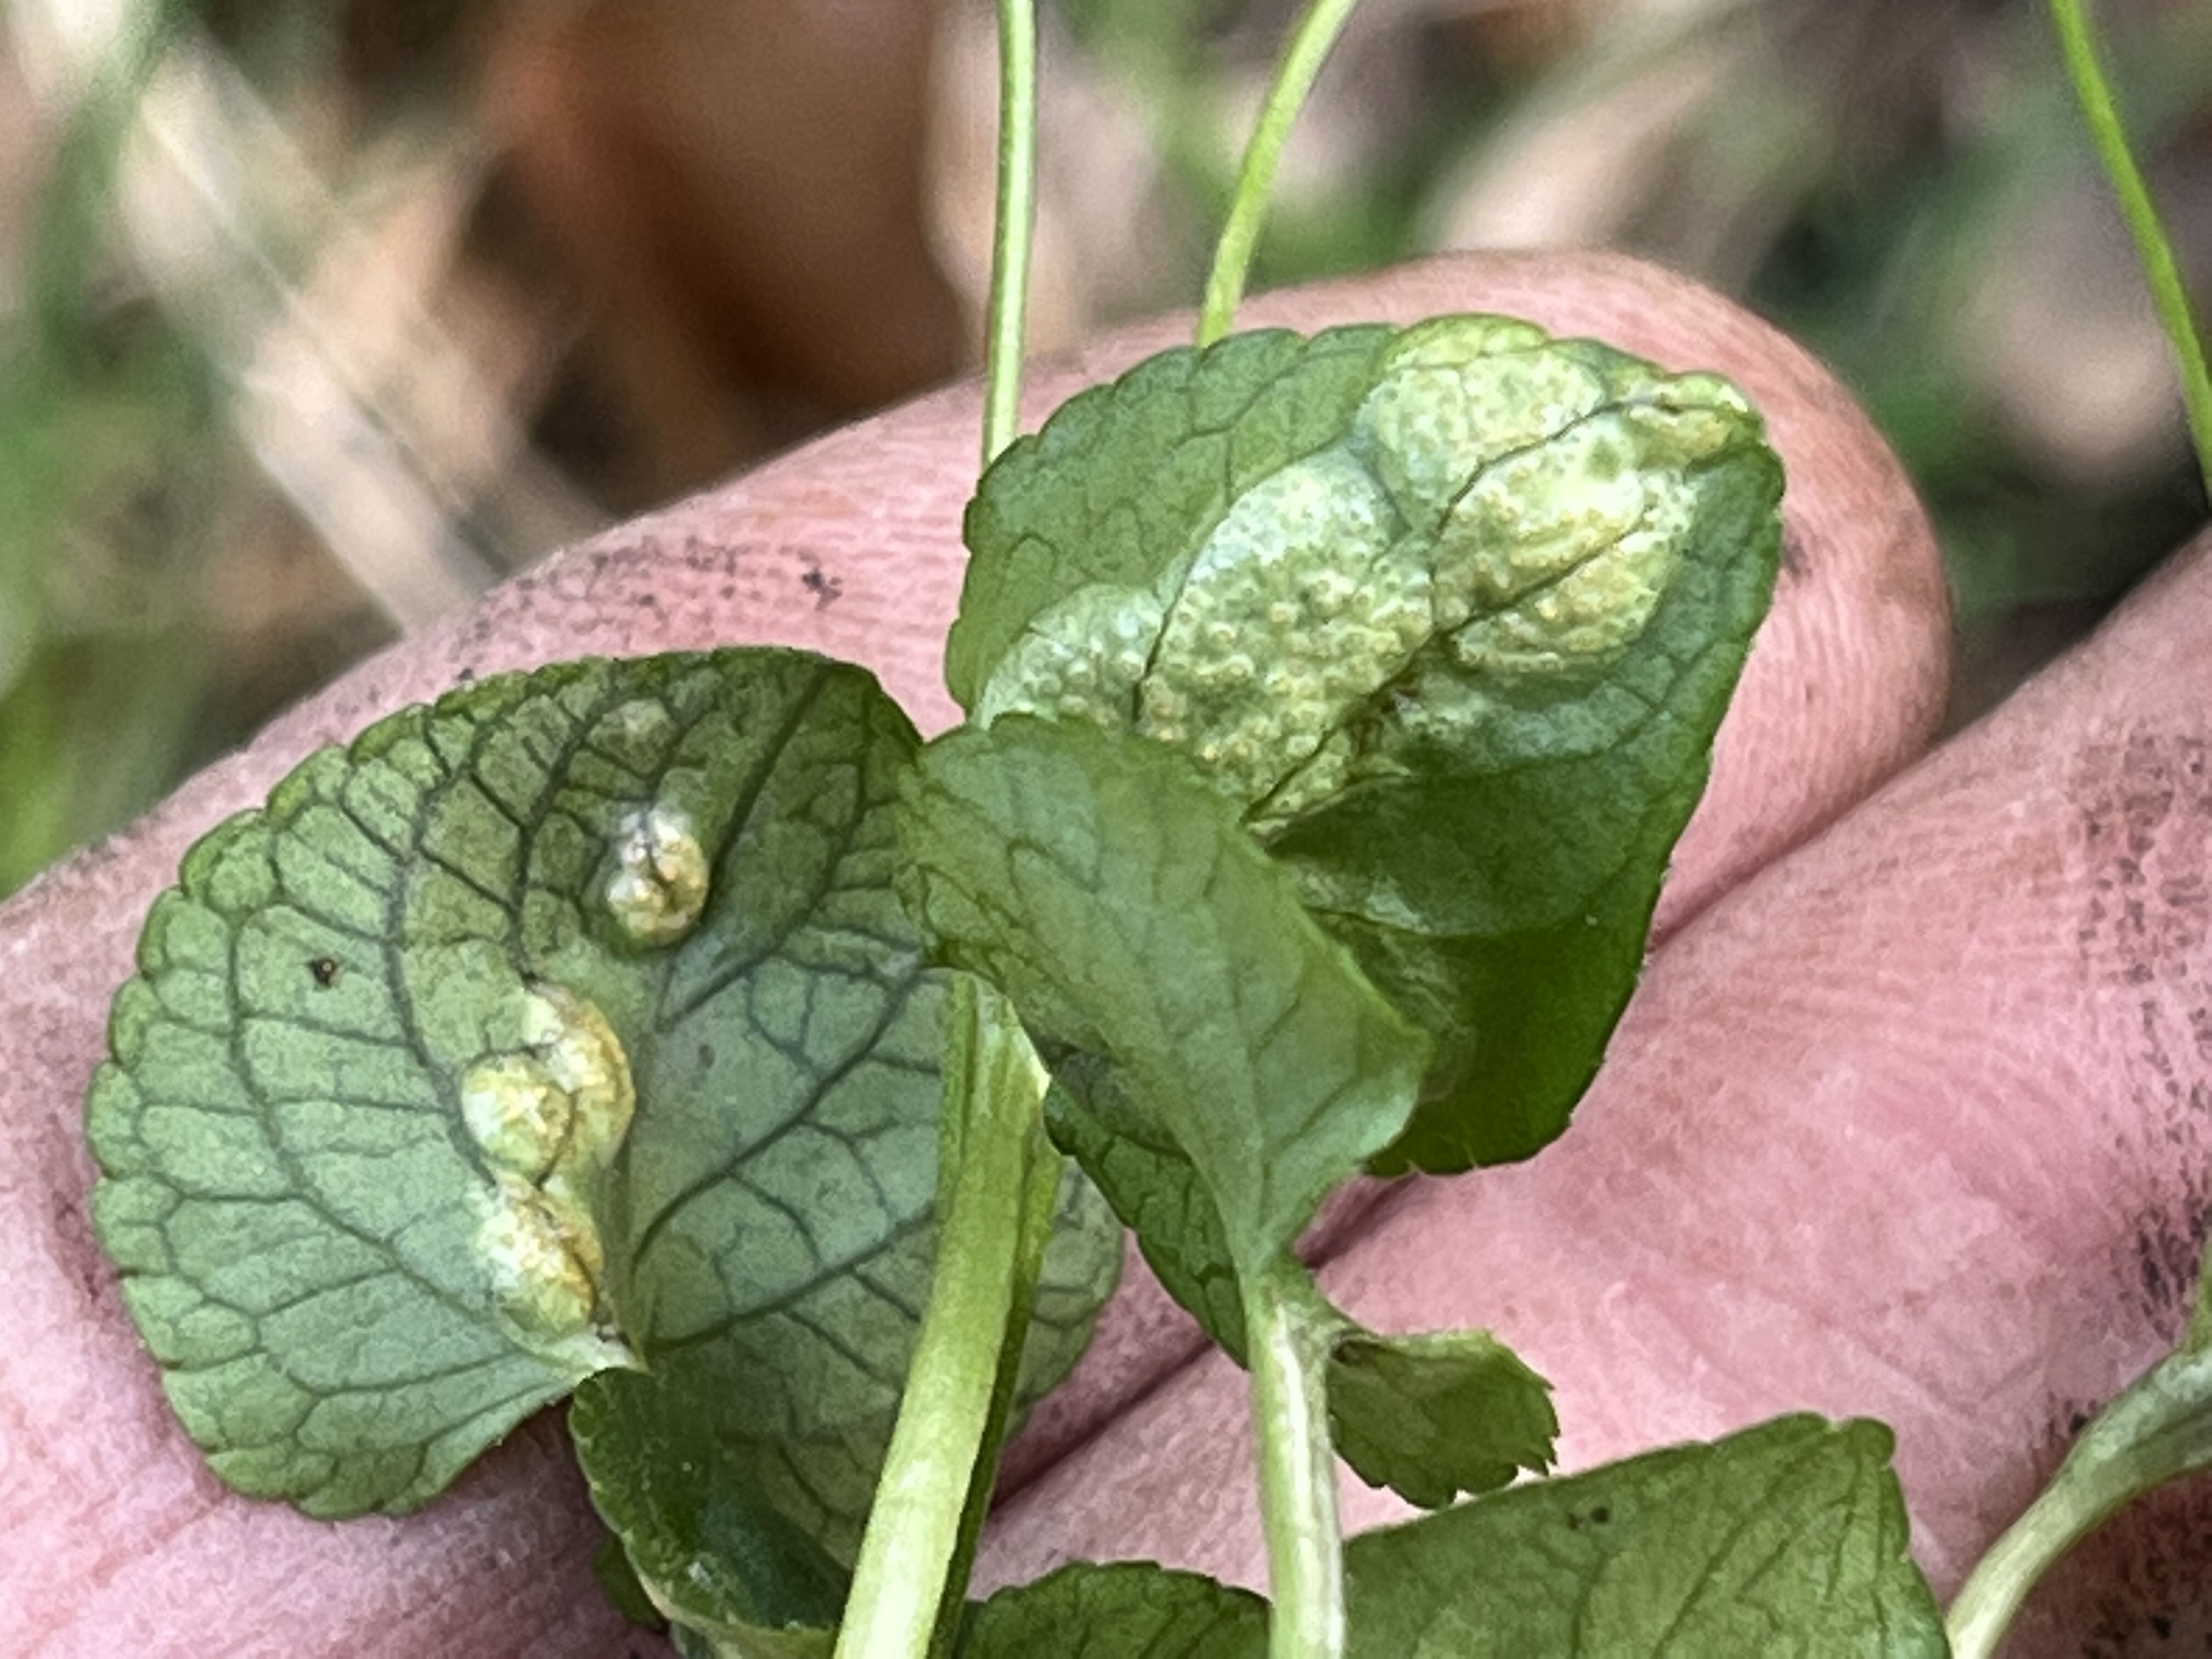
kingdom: Fungi
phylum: Basidiomycota
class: Pucciniomycetes
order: Pucciniales
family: Pucciniaceae
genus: Puccinia
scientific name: Puccinia violae
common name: viol-tvecellerust
